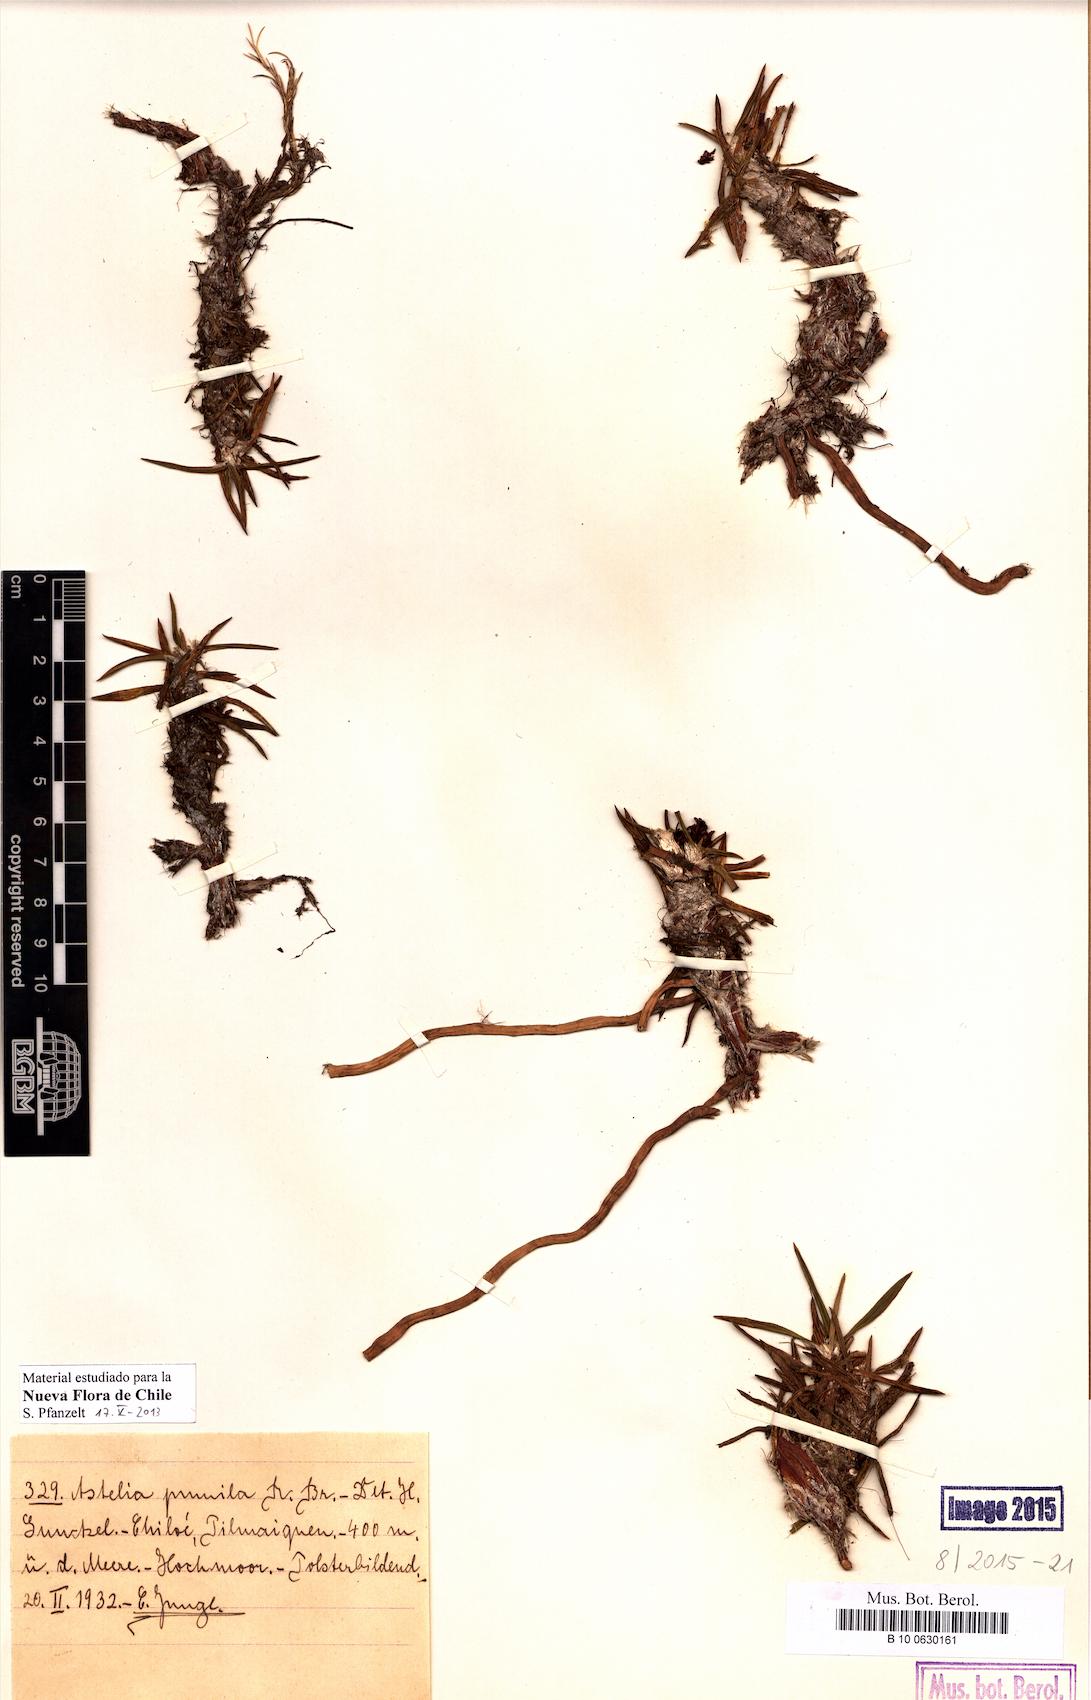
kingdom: Plantae
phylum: Tracheophyta
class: Liliopsida
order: Asparagales
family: Asteliaceae
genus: Astelia
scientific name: Astelia pumila
